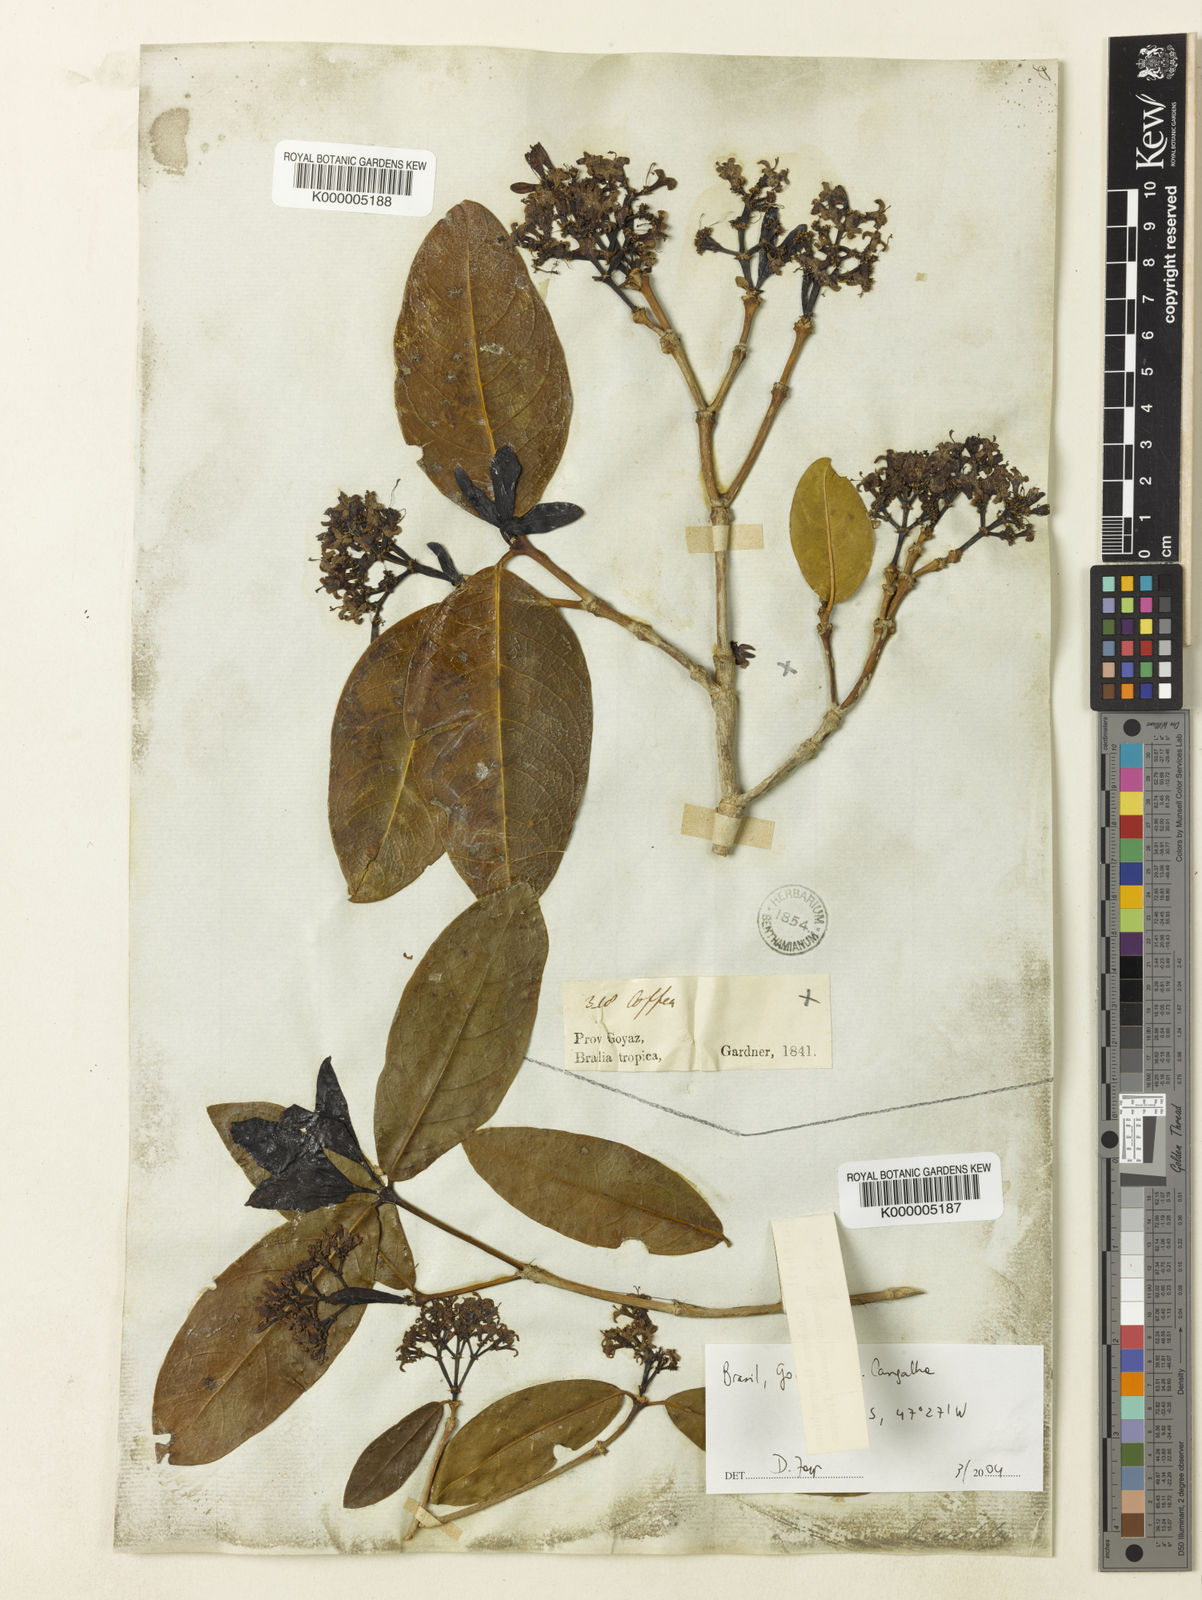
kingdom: Plantae
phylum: Tracheophyta
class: Magnoliopsida
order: Gentianales
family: Rubiaceae
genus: Rudgea
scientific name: Rudgea erioloba
